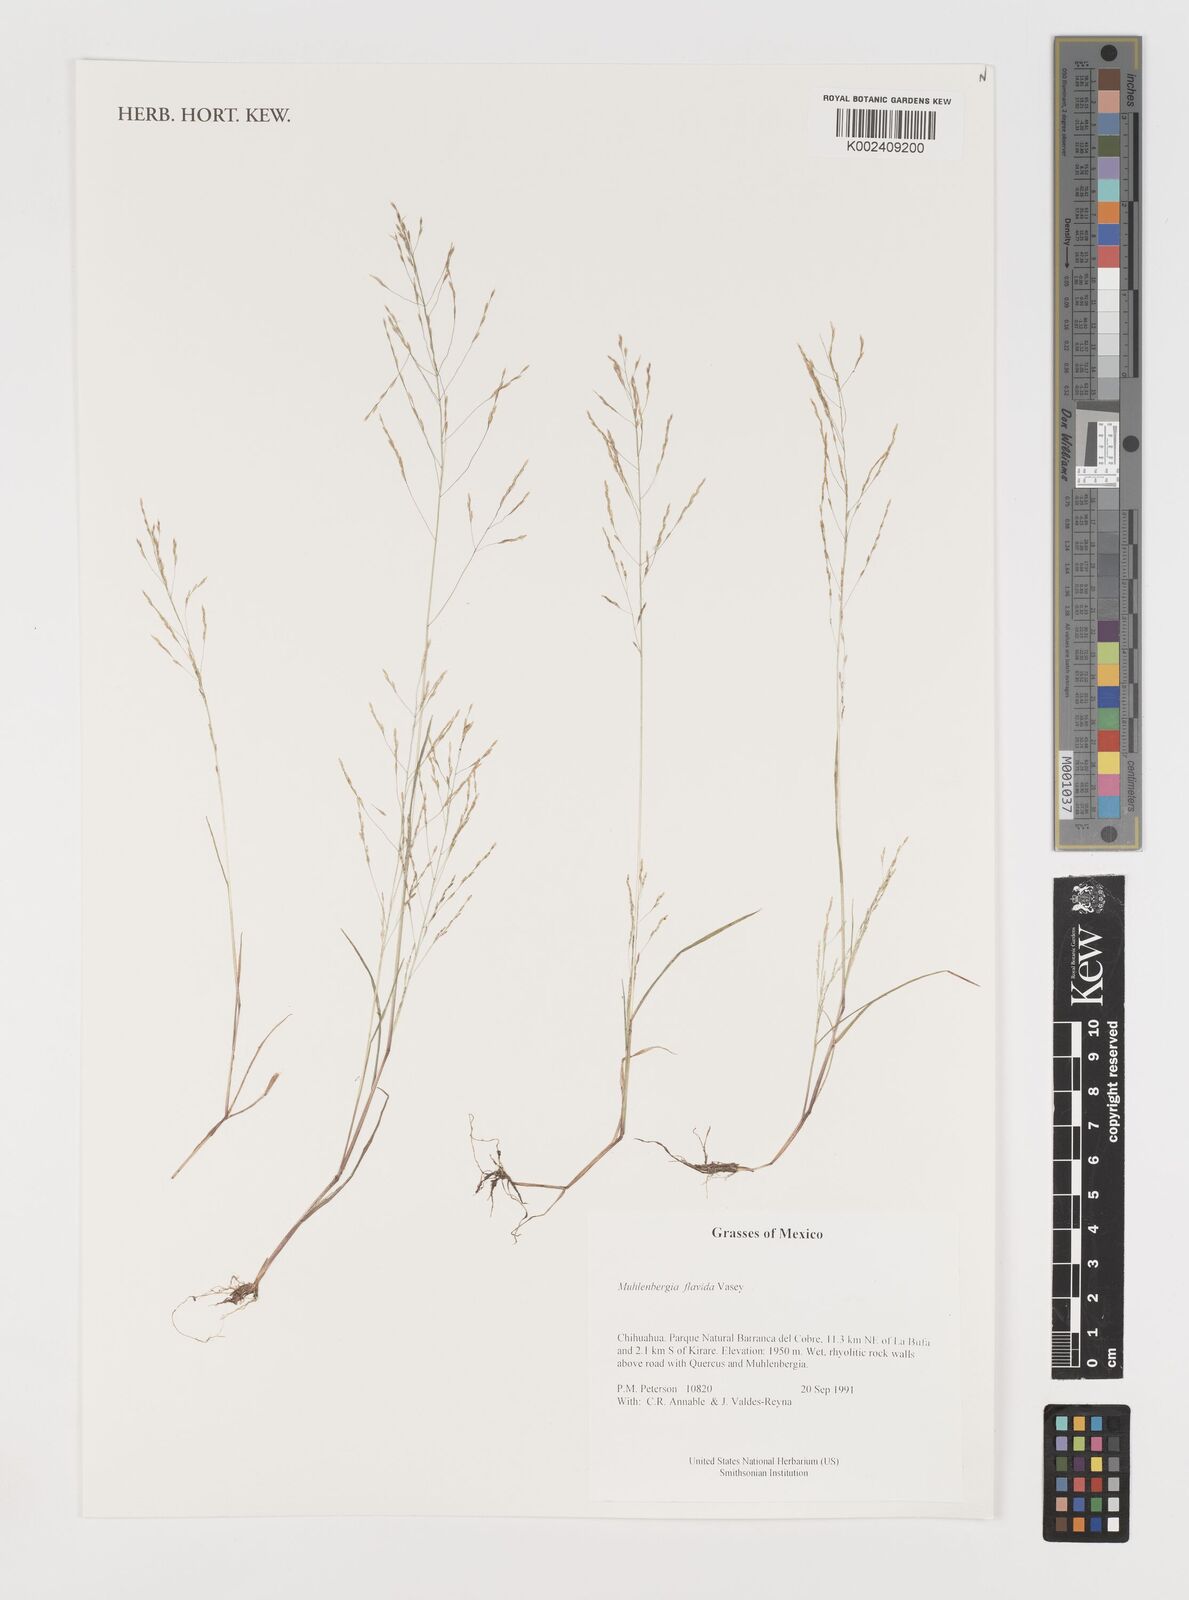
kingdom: Plantae
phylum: Tracheophyta
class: Liliopsida
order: Poales
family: Poaceae
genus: Muhlenbergia
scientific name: Muhlenbergia flavida
